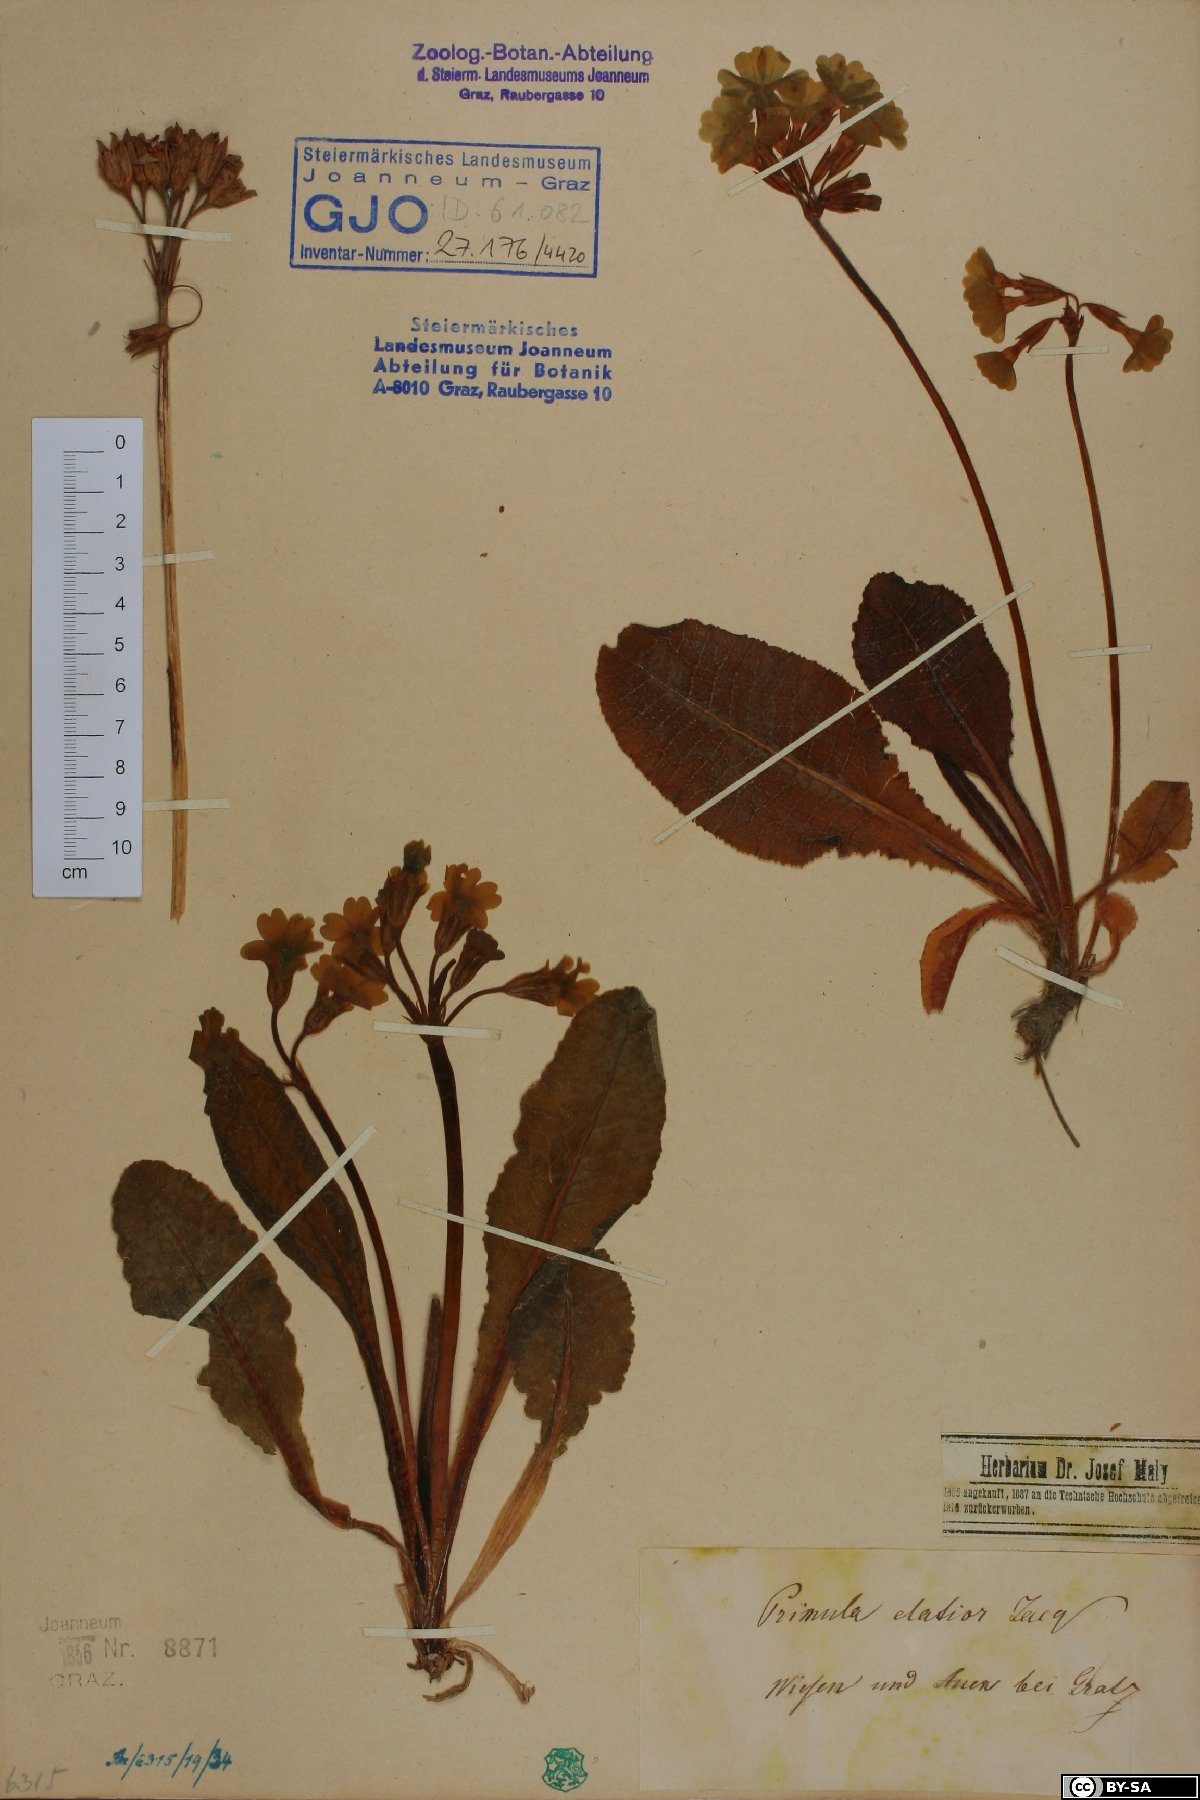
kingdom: Plantae
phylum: Tracheophyta
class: Magnoliopsida
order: Ericales
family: Primulaceae
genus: Primula
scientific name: Primula elatior
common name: Oxlip
